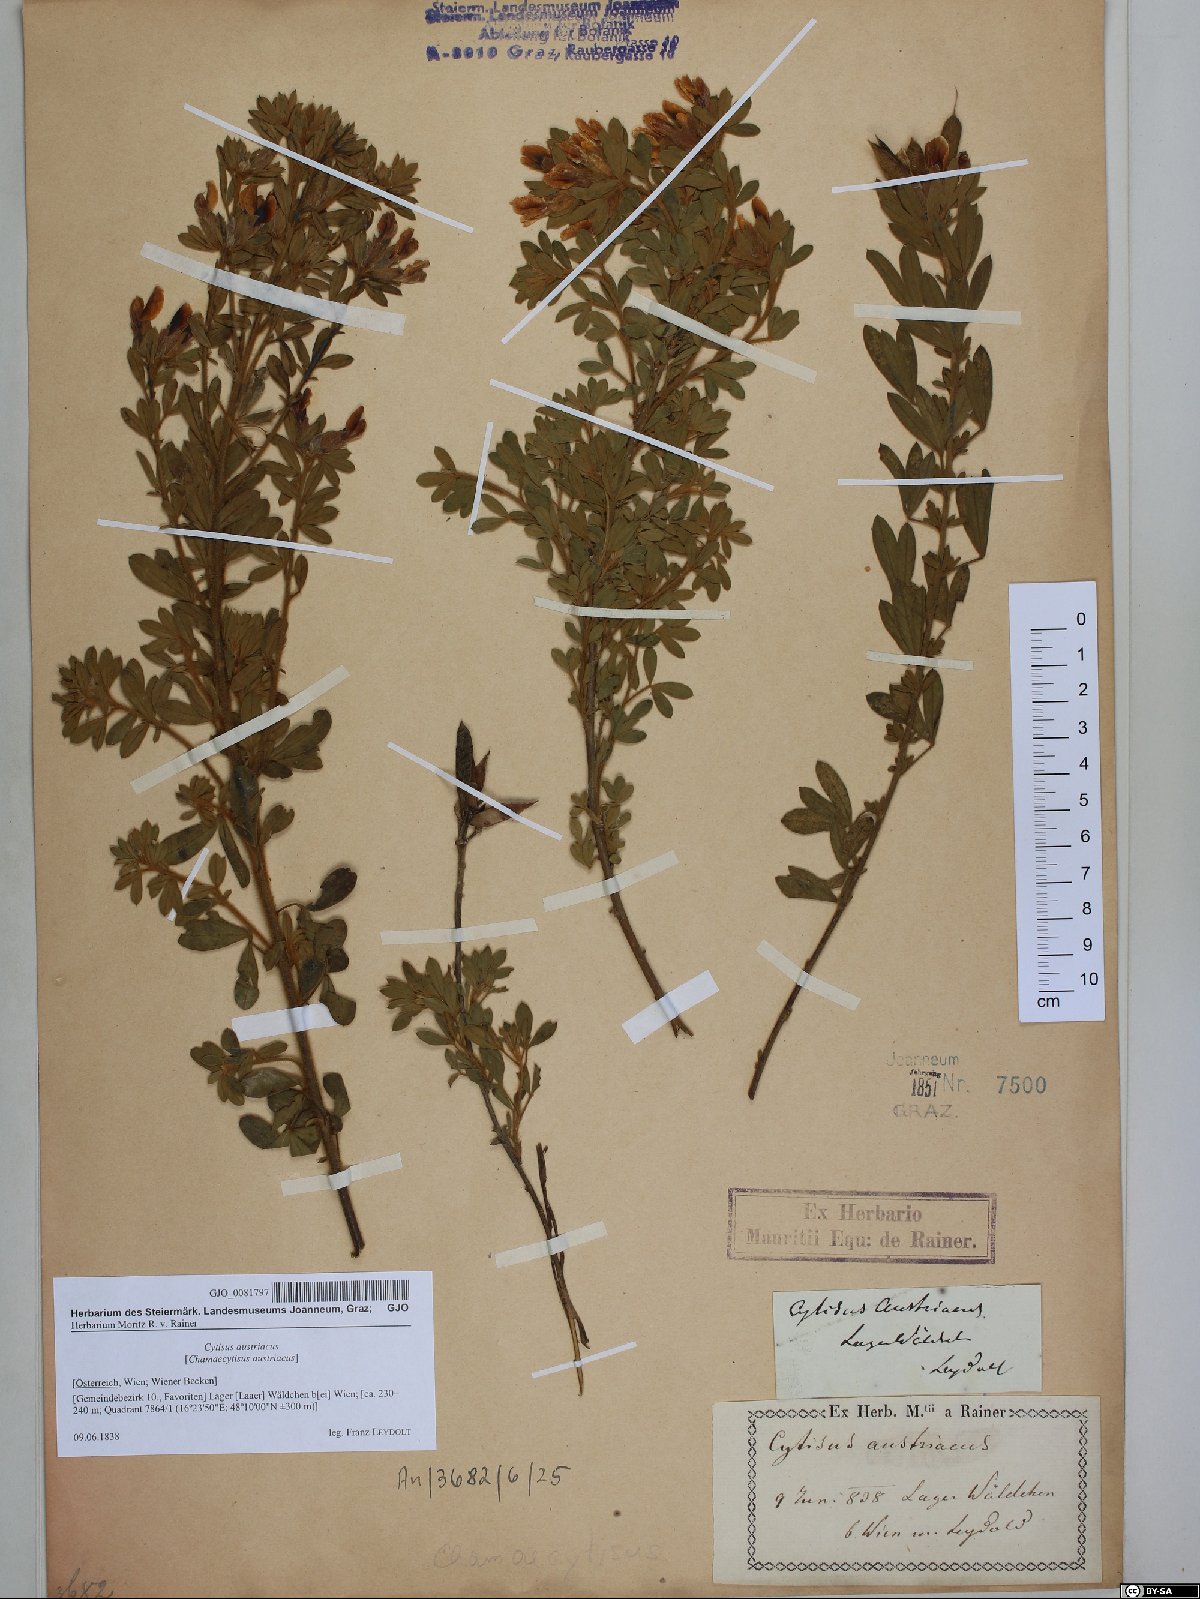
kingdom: Plantae
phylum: Tracheophyta
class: Magnoliopsida
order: Fabales
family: Fabaceae
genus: Chamaecytisus
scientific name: Chamaecytisus austriacus
